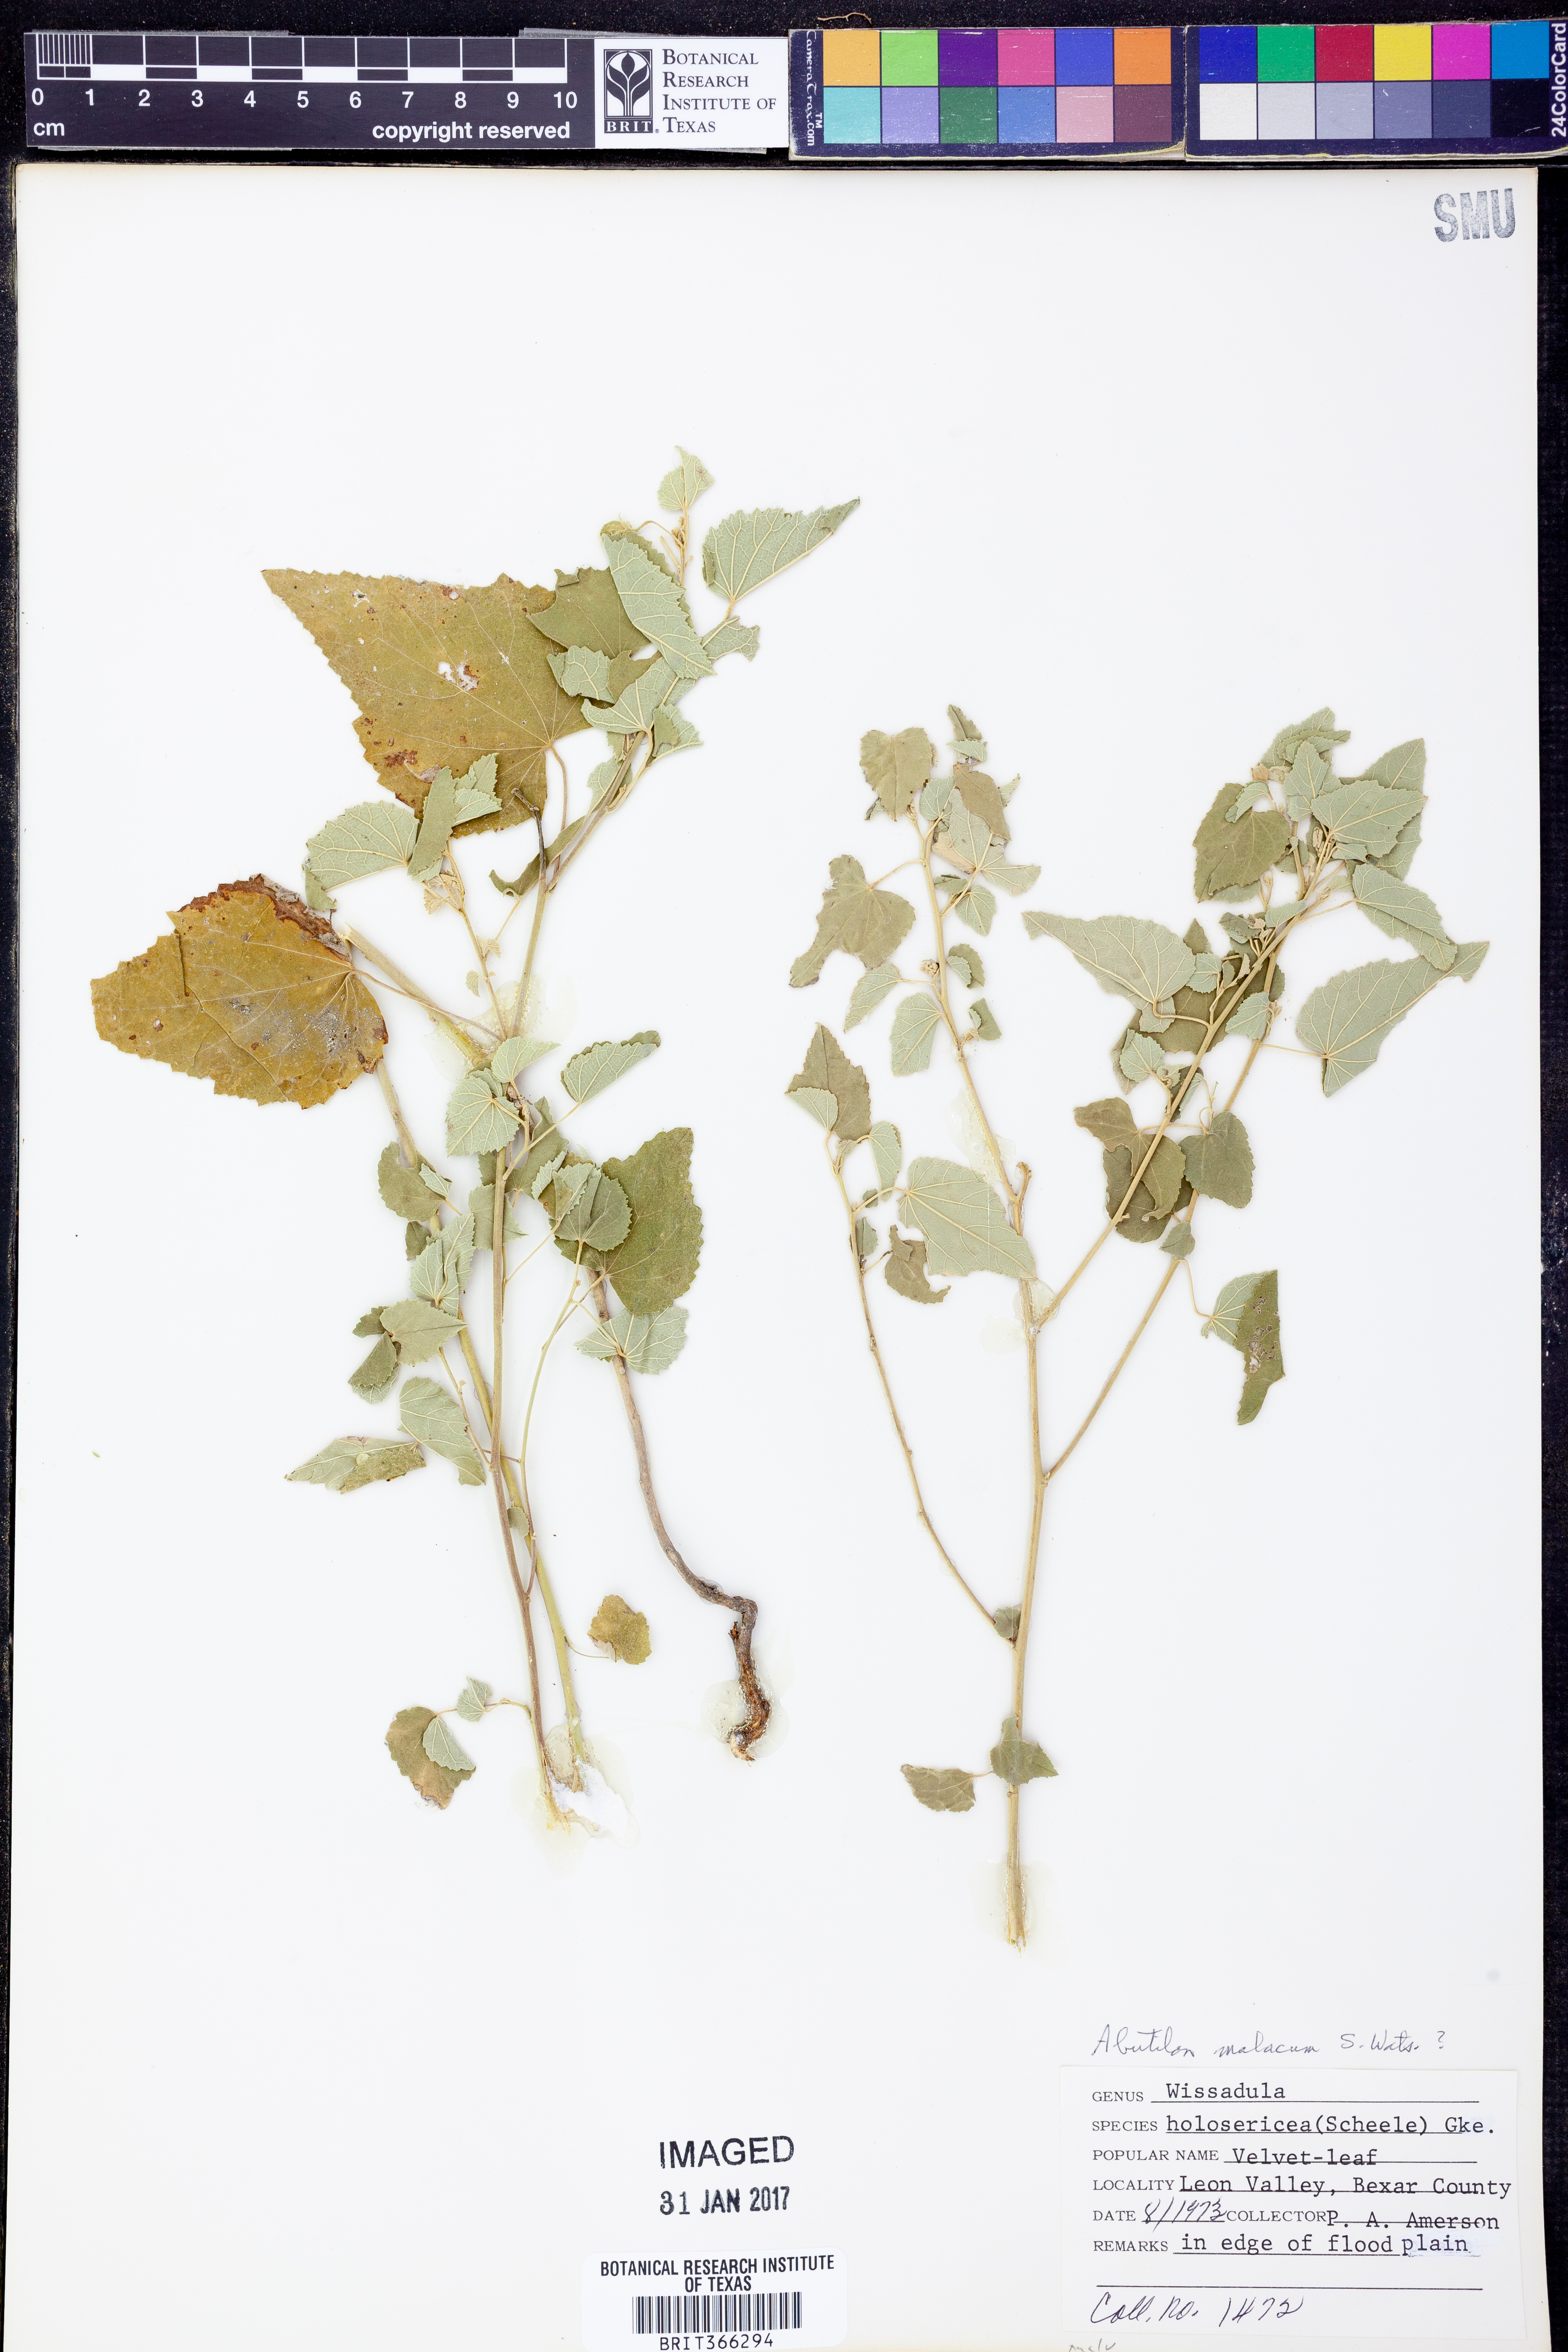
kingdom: Plantae
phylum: Tracheophyta
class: Magnoliopsida
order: Malvales
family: Malvaceae
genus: Allowissadula
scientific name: Allowissadula holosericea
